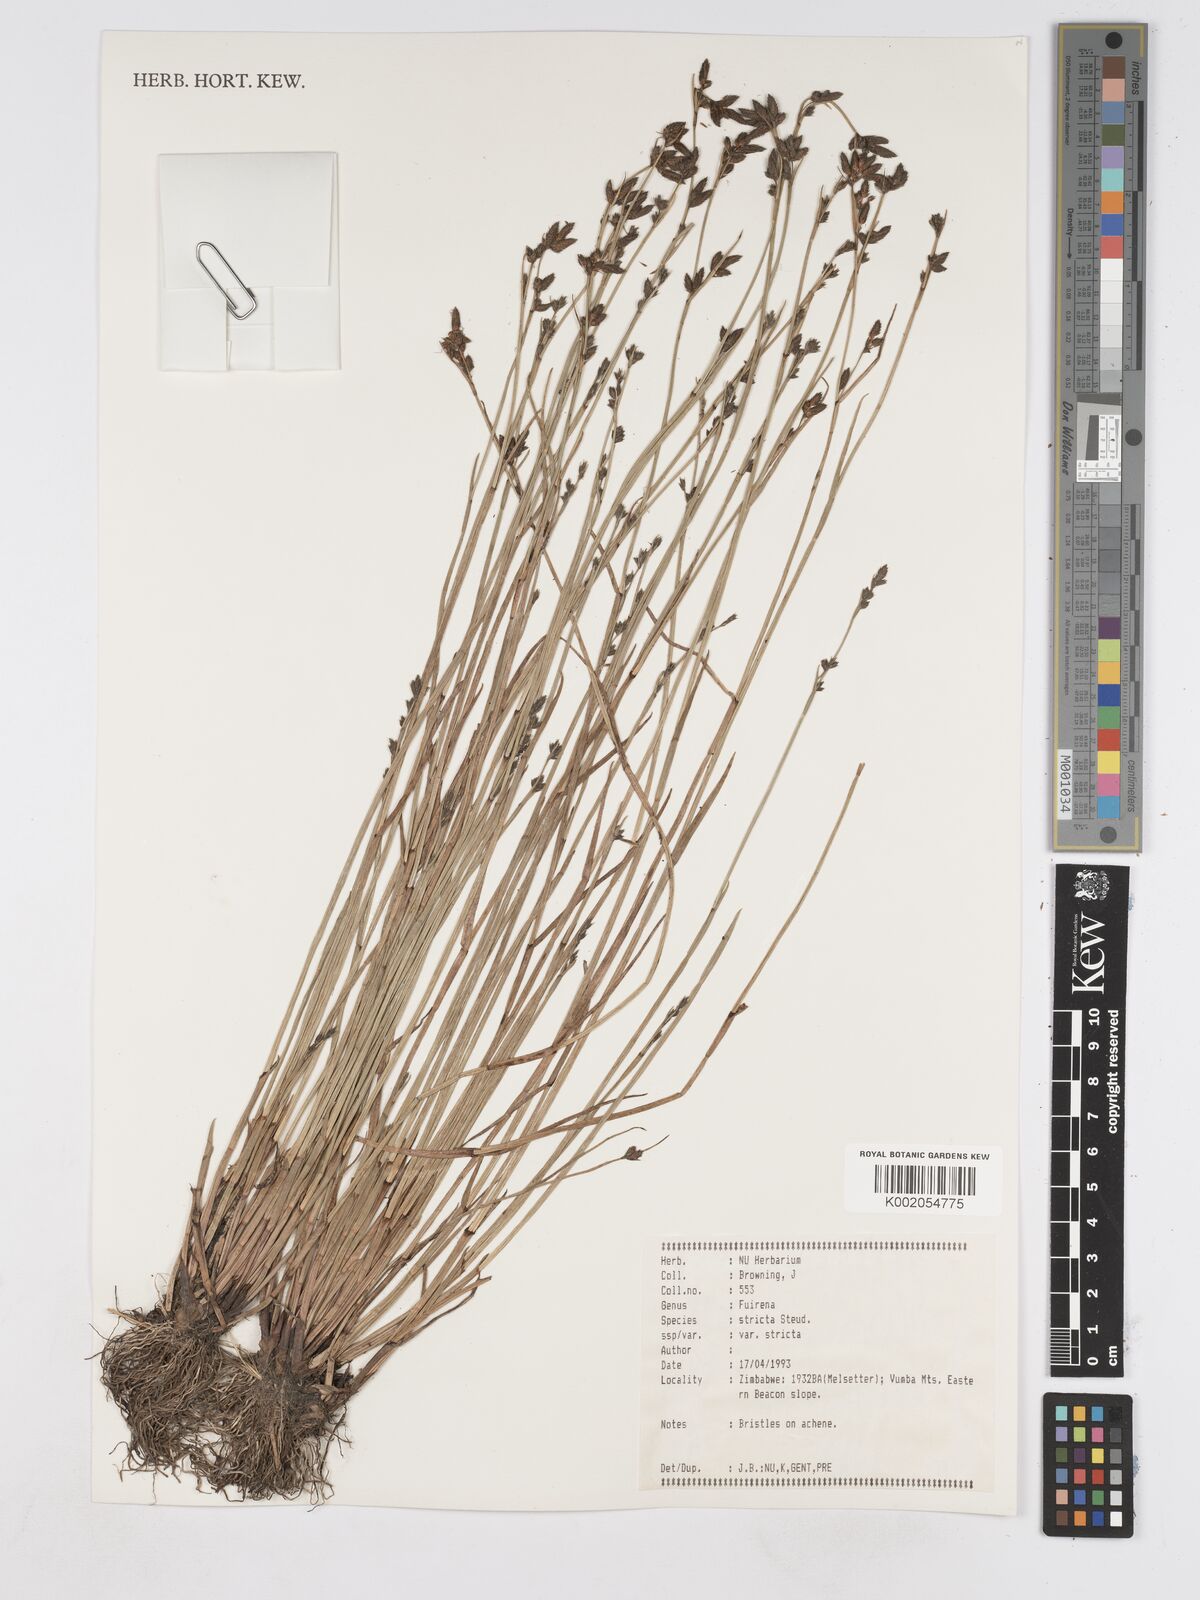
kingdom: Plantae
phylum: Tracheophyta
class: Liliopsida
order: Poales
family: Cyperaceae
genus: Fuirena
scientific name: Fuirena stricta
